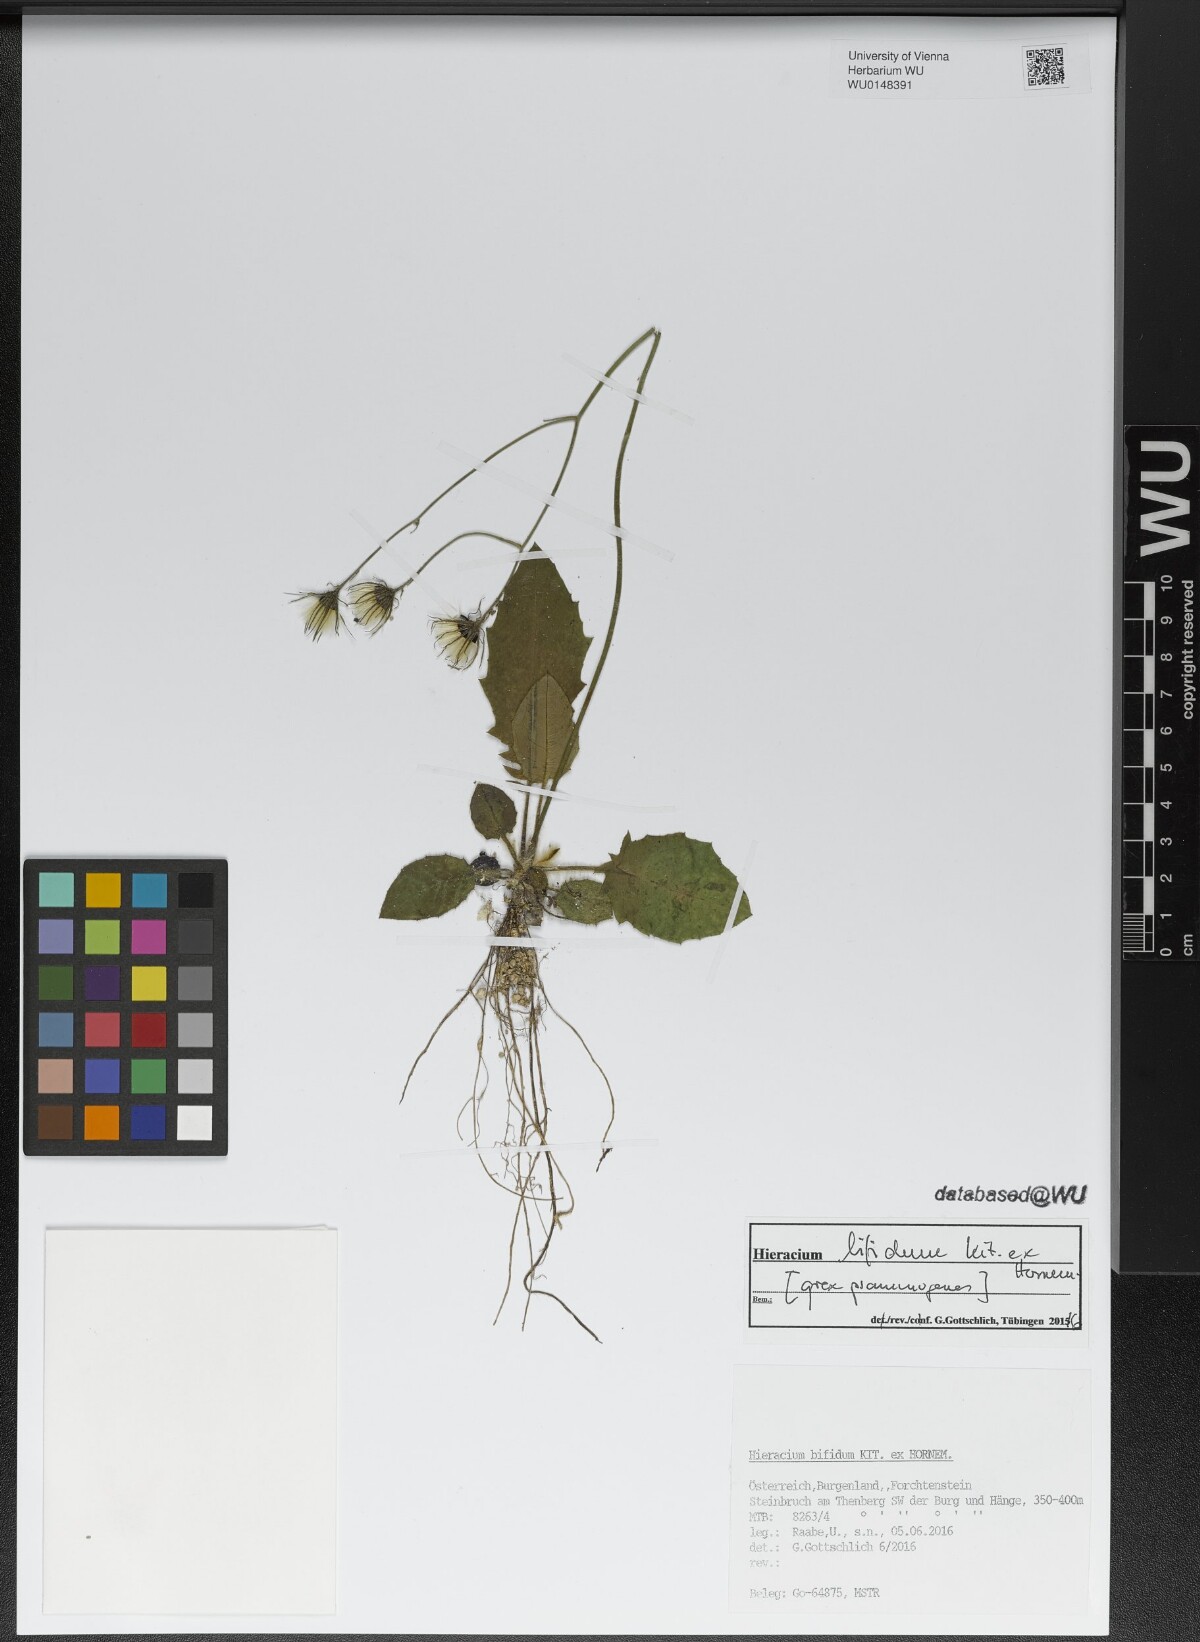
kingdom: Plantae
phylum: Tracheophyta
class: Magnoliopsida
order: Asterales
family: Asteraceae
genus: Hieracium
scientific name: Hieracium bifidum
